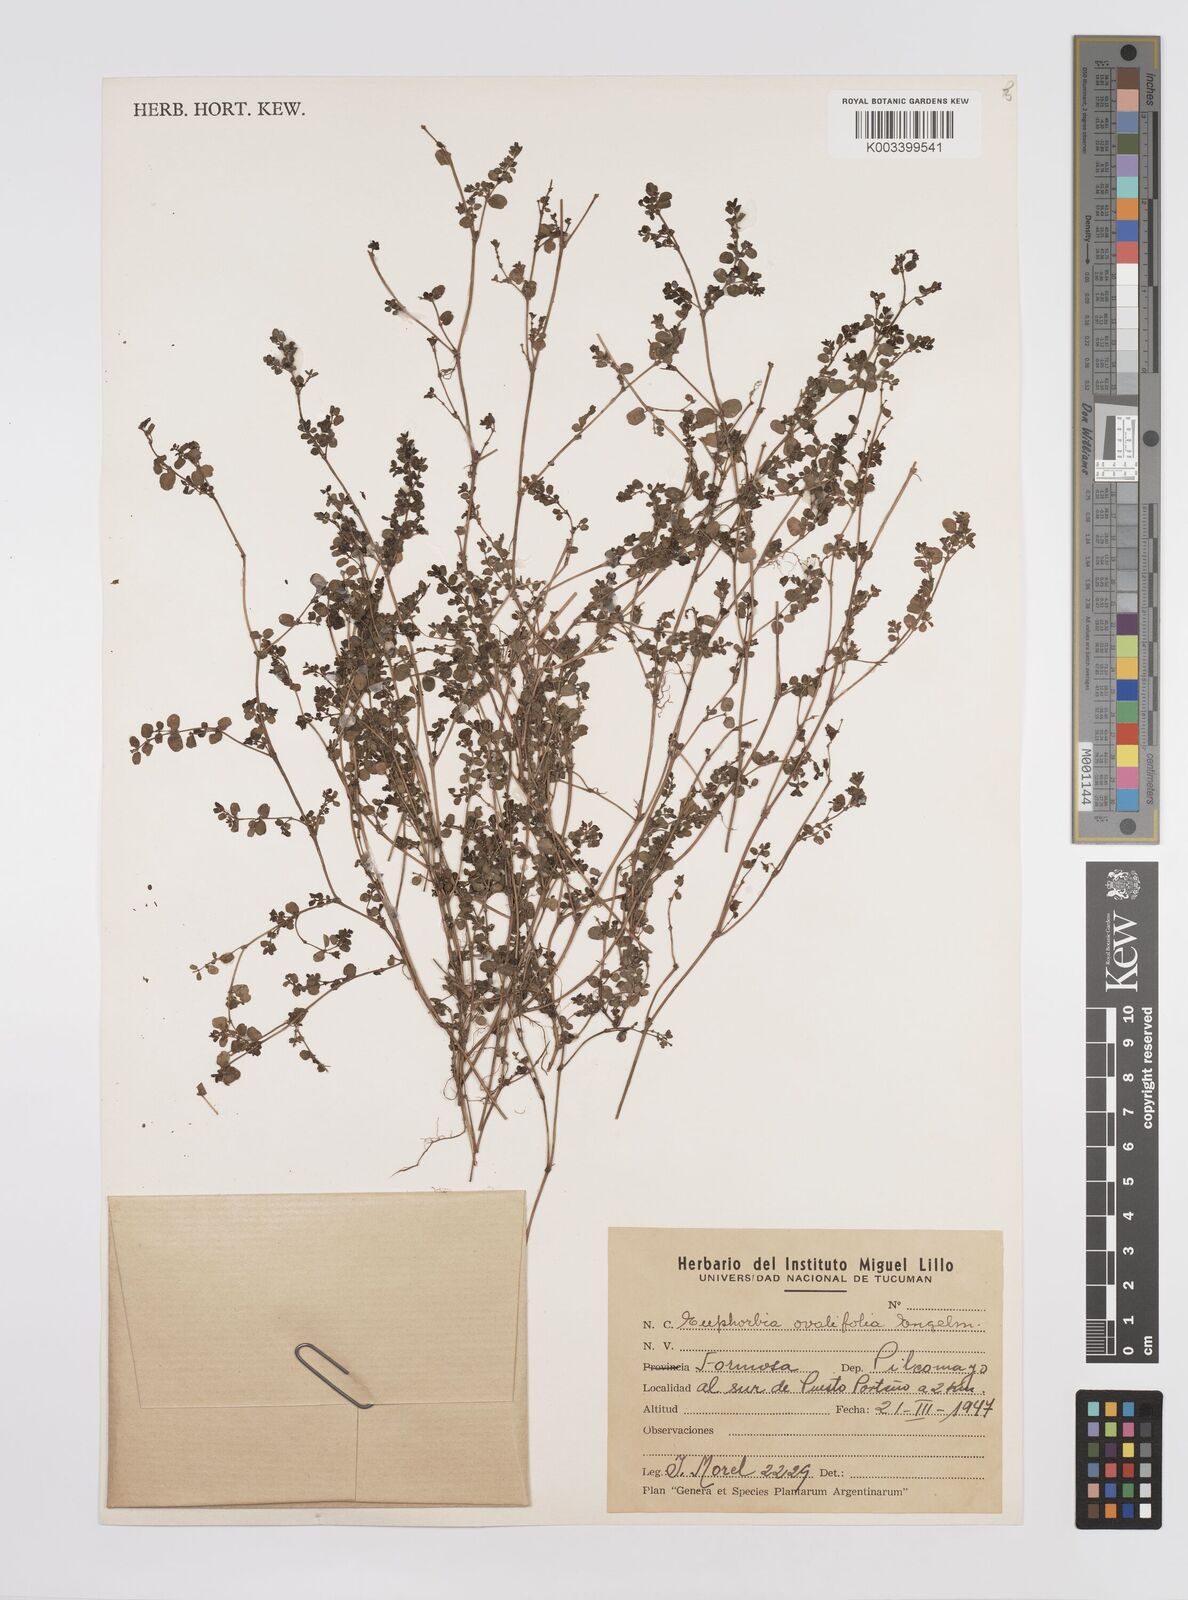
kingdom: Plantae
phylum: Tracheophyta
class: Magnoliopsida
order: Malpighiales
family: Euphorbiaceae
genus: Euphorbia
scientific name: Euphorbia
